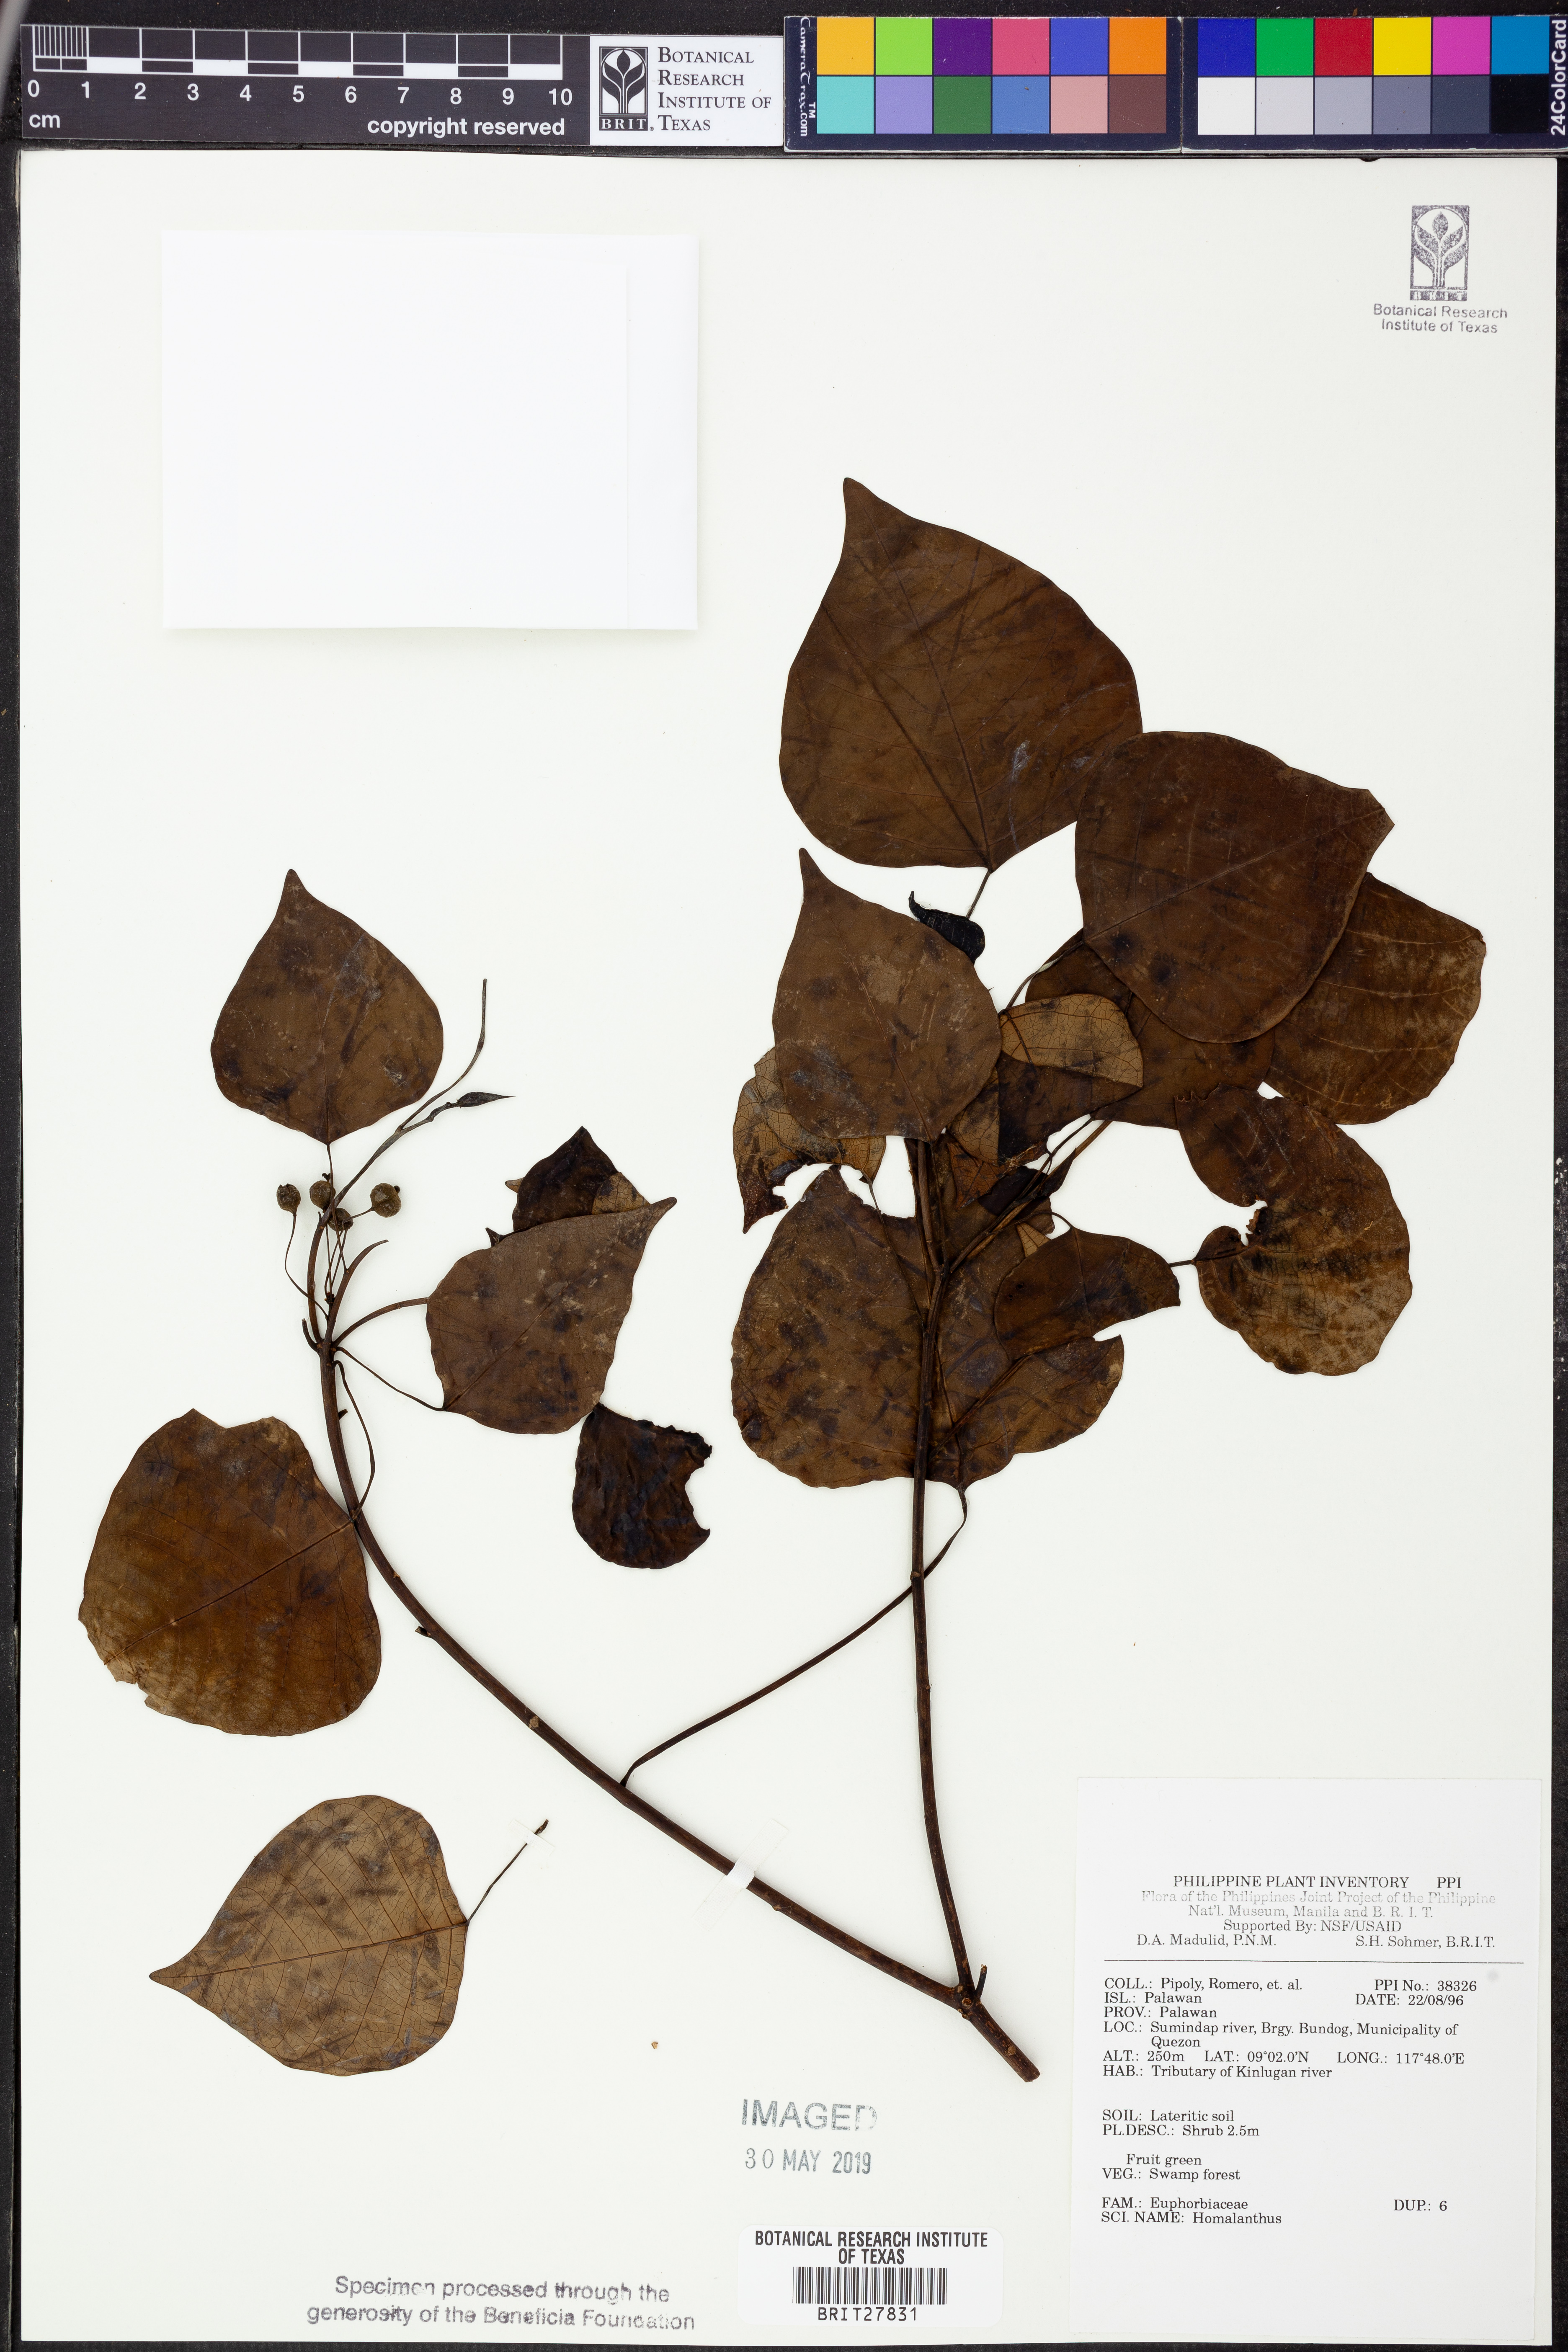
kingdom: Plantae
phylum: Tracheophyta
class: Magnoliopsida
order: Malpighiales
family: Euphorbiaceae
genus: Homalanthus
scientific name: Homalanthus
